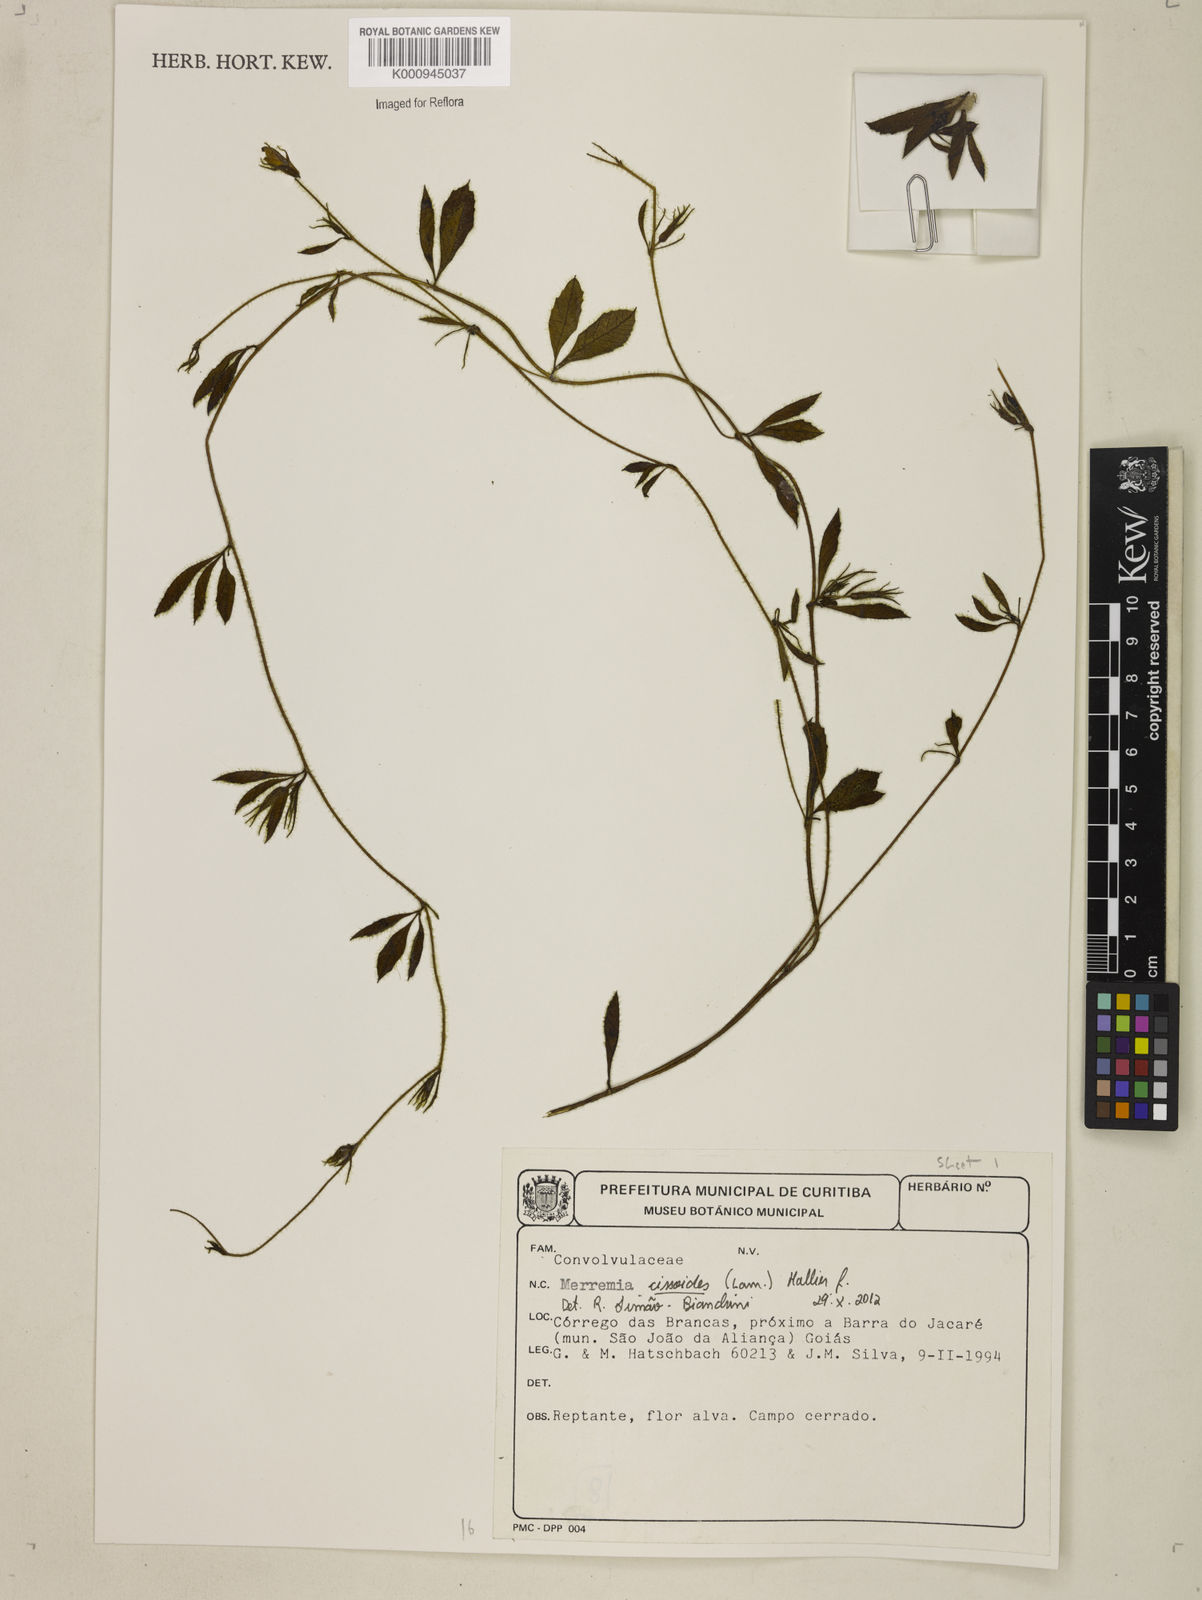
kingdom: Plantae
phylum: Tracheophyta
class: Magnoliopsida
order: Solanales
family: Convolvulaceae
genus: Distimake
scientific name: Distimake cissoides
